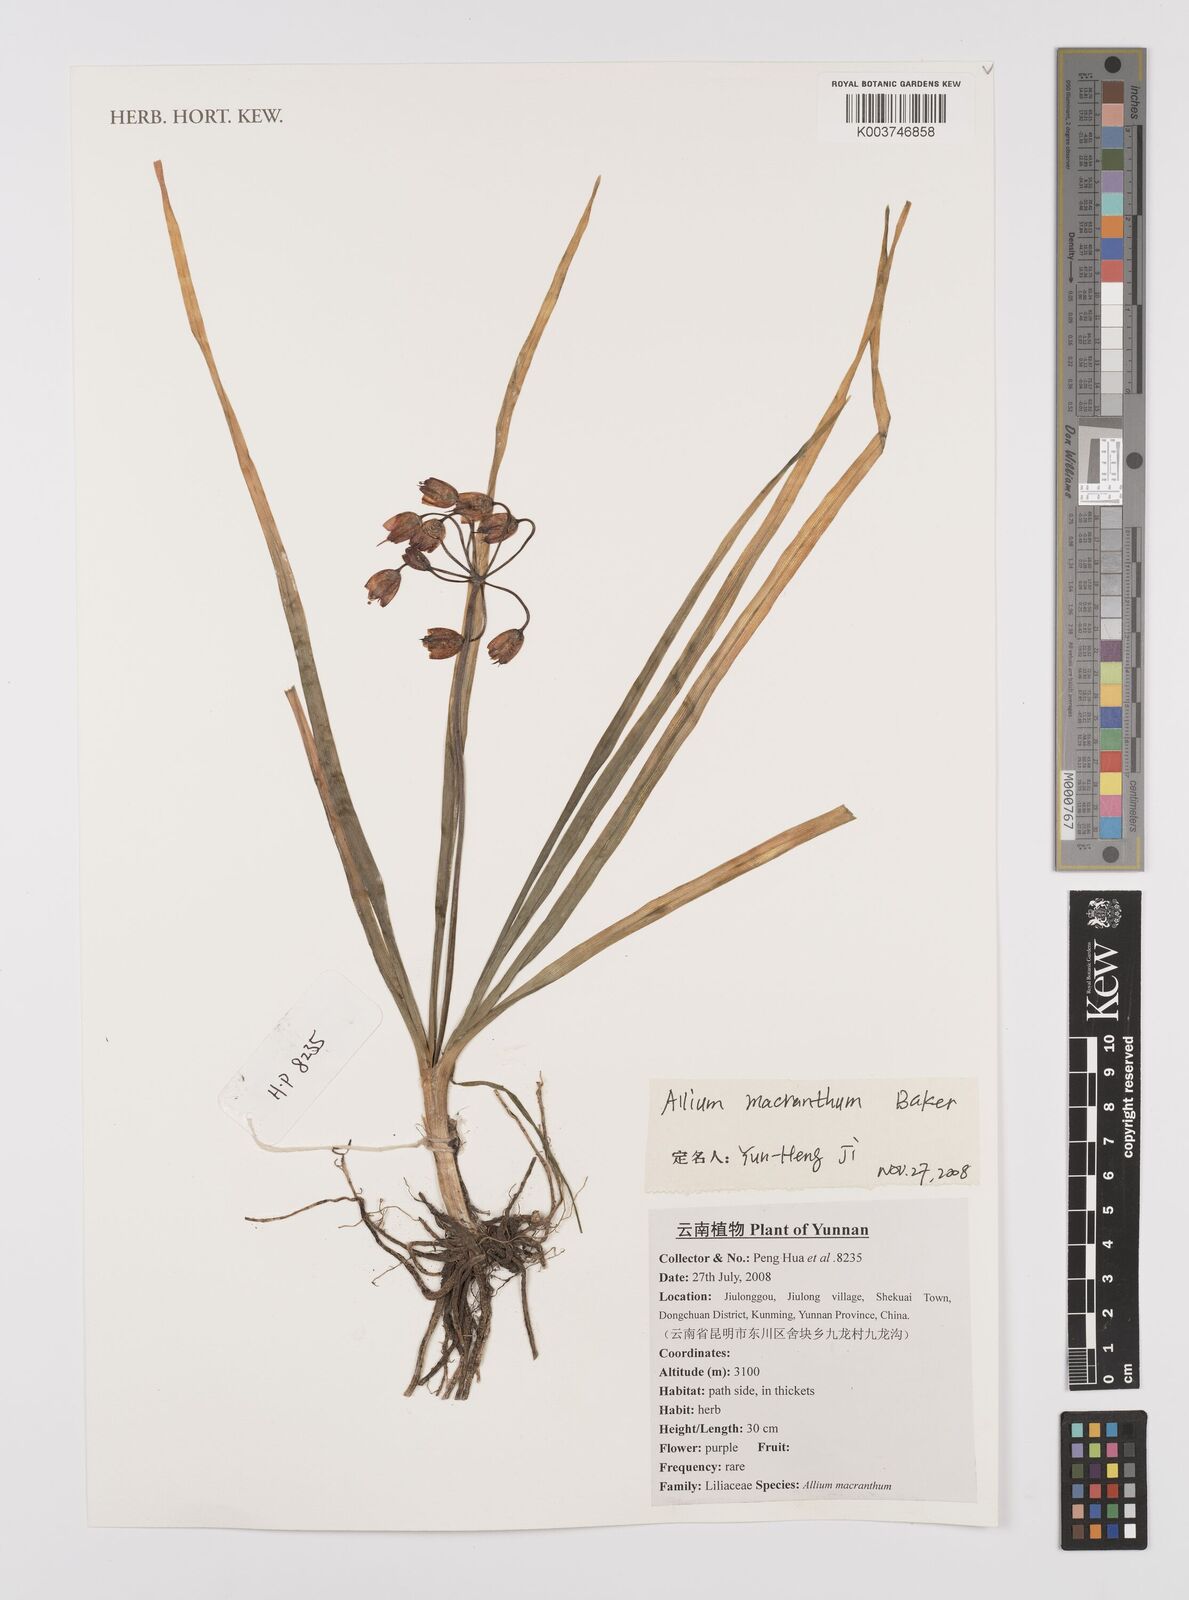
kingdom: Plantae
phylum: Tracheophyta
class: Liliopsida
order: Asparagales
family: Amaryllidaceae
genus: Allium
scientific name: Allium macranthum
